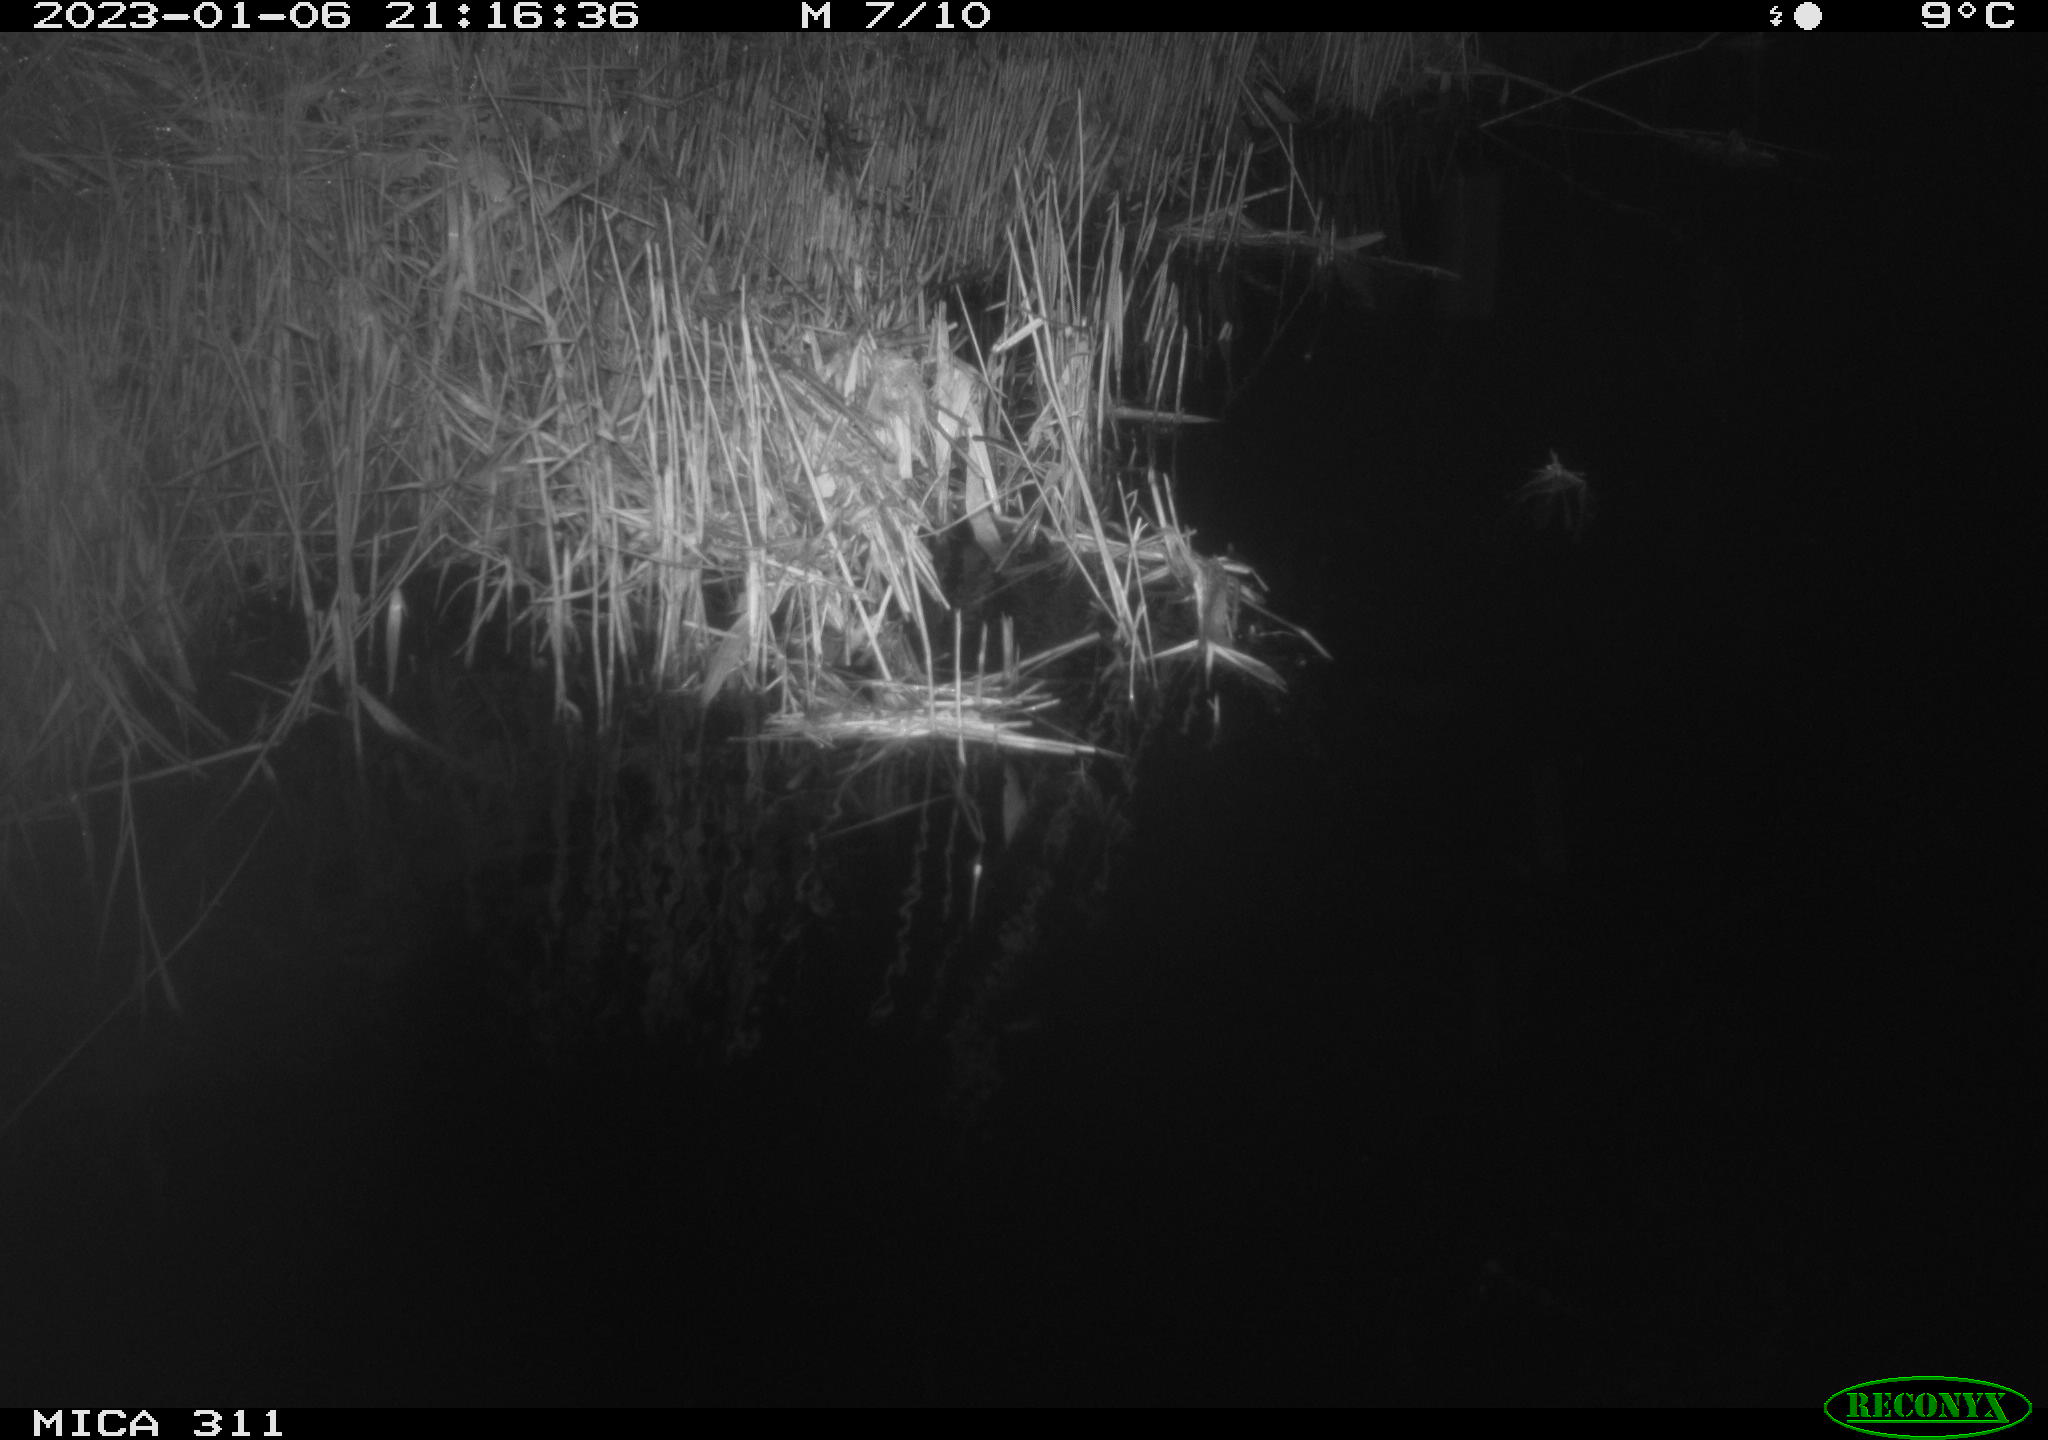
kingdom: Animalia
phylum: Chordata
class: Aves
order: Gruiformes
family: Rallidae
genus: Gallinula
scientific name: Gallinula chloropus
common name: Common moorhen
